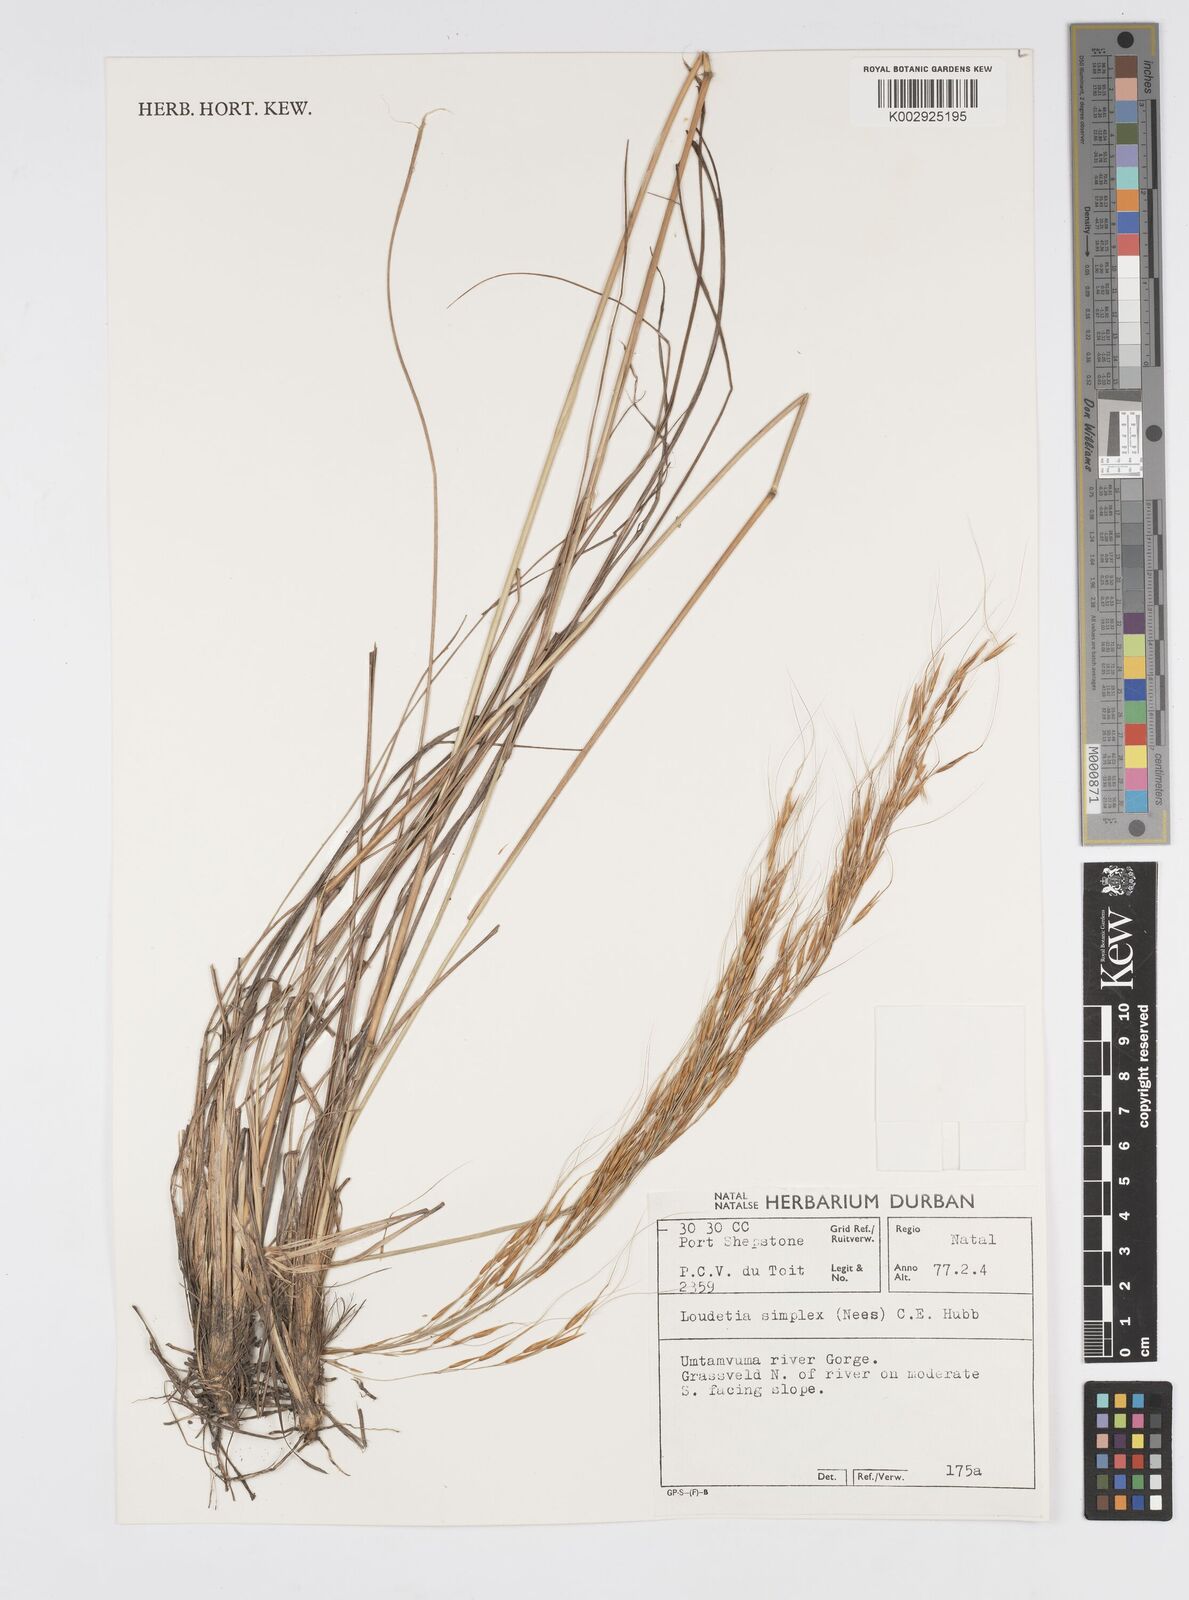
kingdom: Plantae
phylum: Tracheophyta
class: Liliopsida
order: Poales
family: Poaceae
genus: Loudetia
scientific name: Loudetia simplex
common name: Common russet grass
